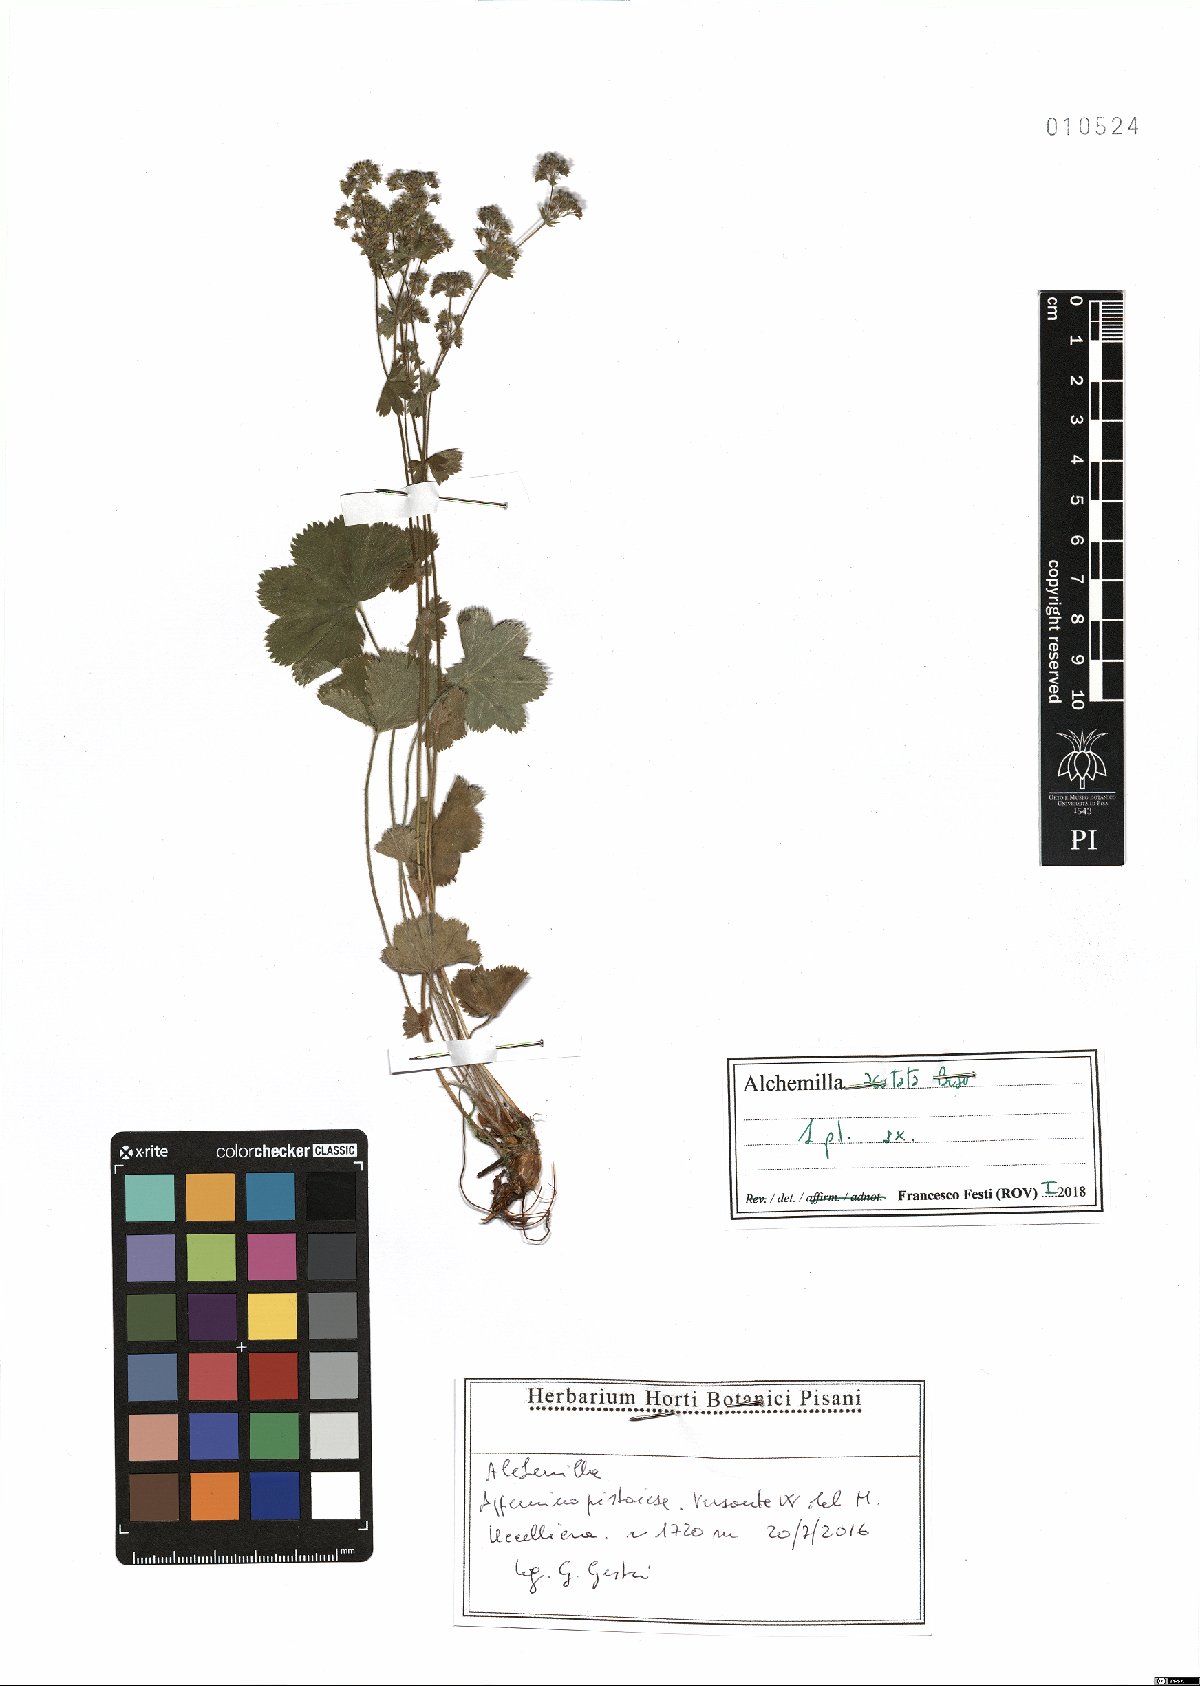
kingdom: Plantae
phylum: Tracheophyta
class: Magnoliopsida
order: Rosales
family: Rosaceae
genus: Alchemilla
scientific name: Alchemilla acutata
